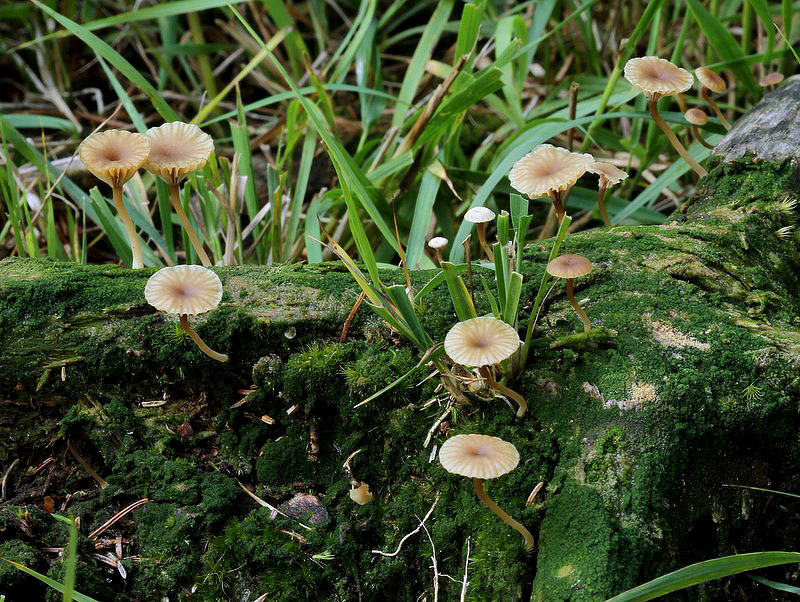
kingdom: Fungi
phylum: Basidiomycota
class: Agaricomycetes
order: Agaricales
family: Hygrophoraceae
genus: Lichenomphalia
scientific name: Lichenomphalia umbellifera
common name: tørve-lavhat
